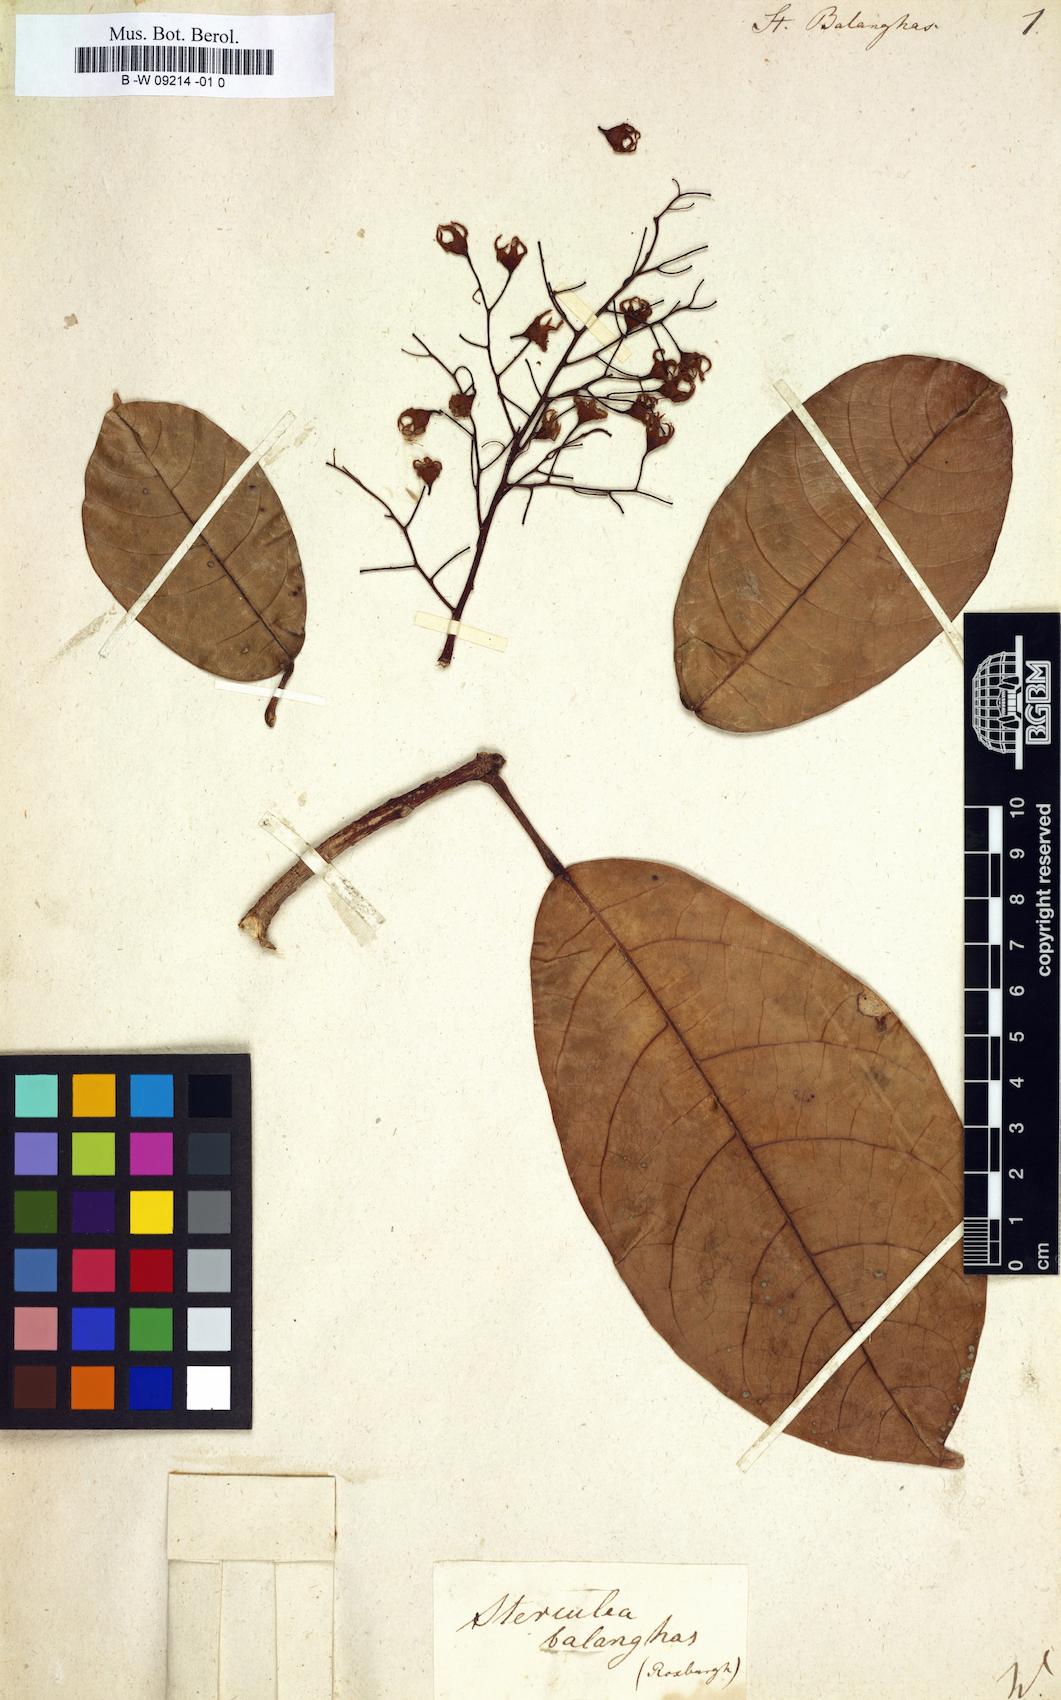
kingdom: Plantae
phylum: Tracheophyta
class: Magnoliopsida
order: Malvales
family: Malvaceae
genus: Sterculia
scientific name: Sterculia balanghas
